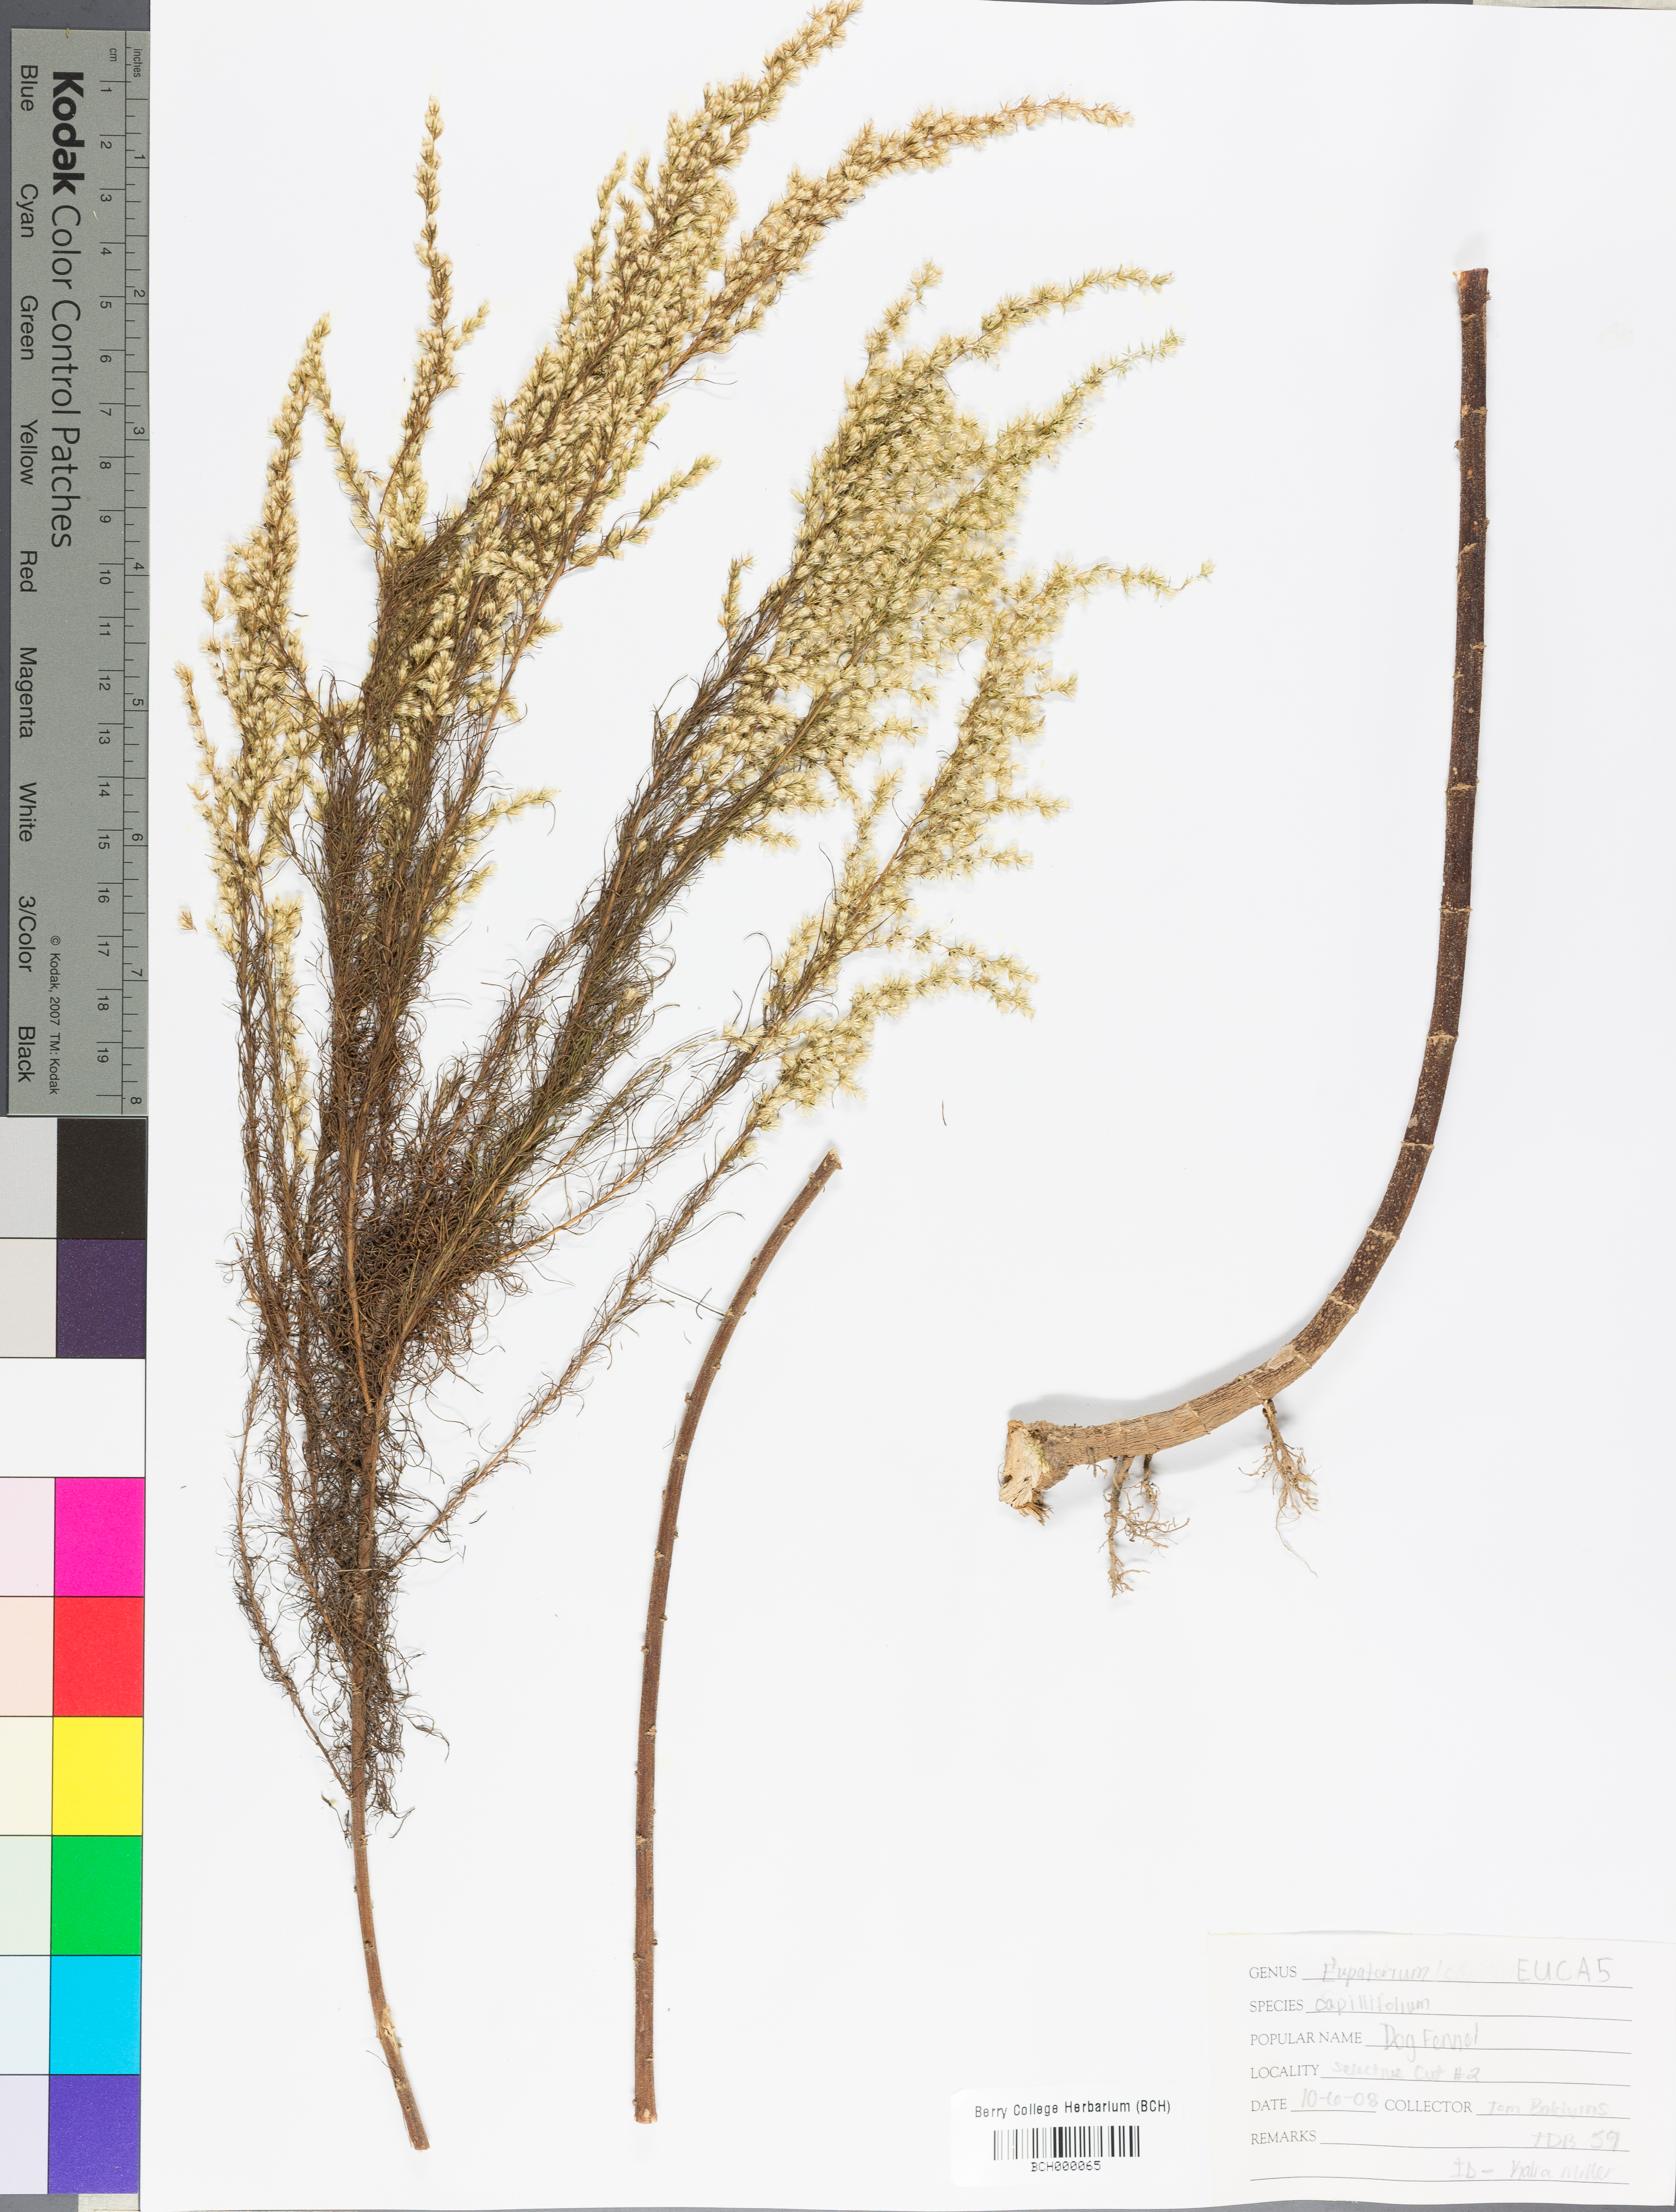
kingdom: Plantae
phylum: Tracheophyta
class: Magnoliopsida
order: Asterales
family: Asteraceae
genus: Eupatorium
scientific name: Eupatorium capillifolium
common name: Dog-fennel
